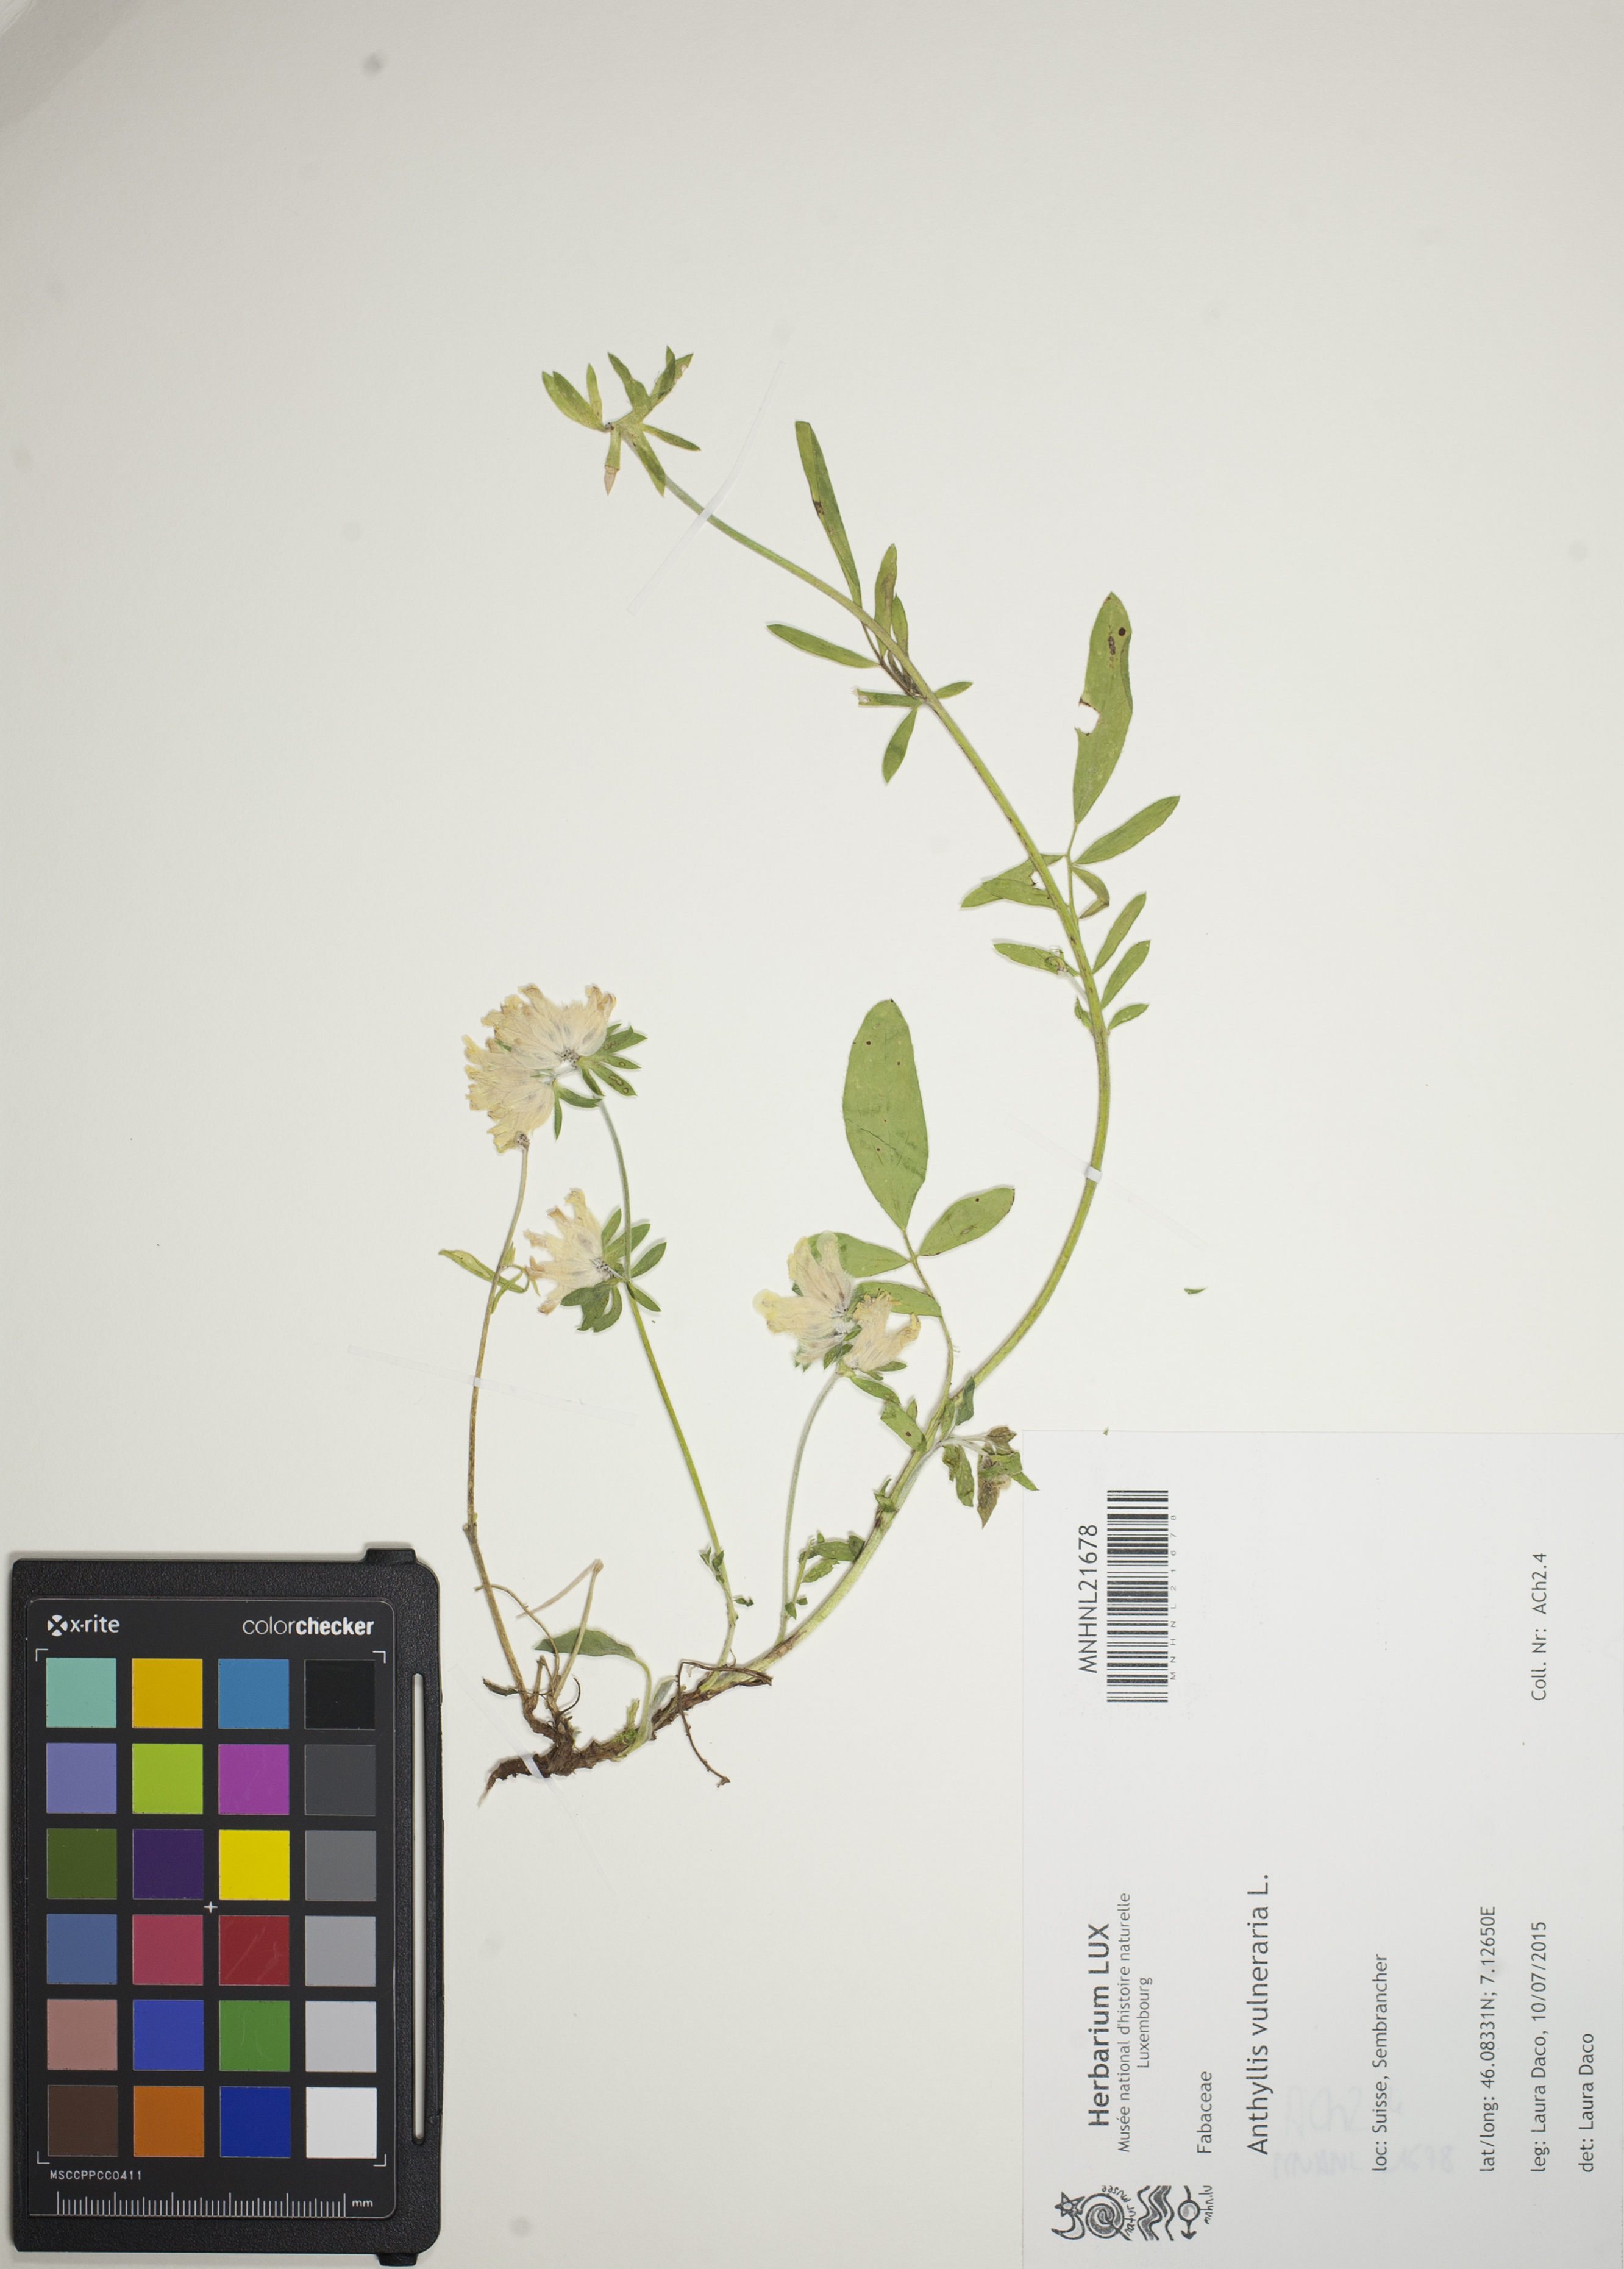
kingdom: Plantae
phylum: Tracheophyta
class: Magnoliopsida
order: Fabales
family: Fabaceae
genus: Anthyllis
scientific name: Anthyllis vulneraria
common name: Kidney vetch
